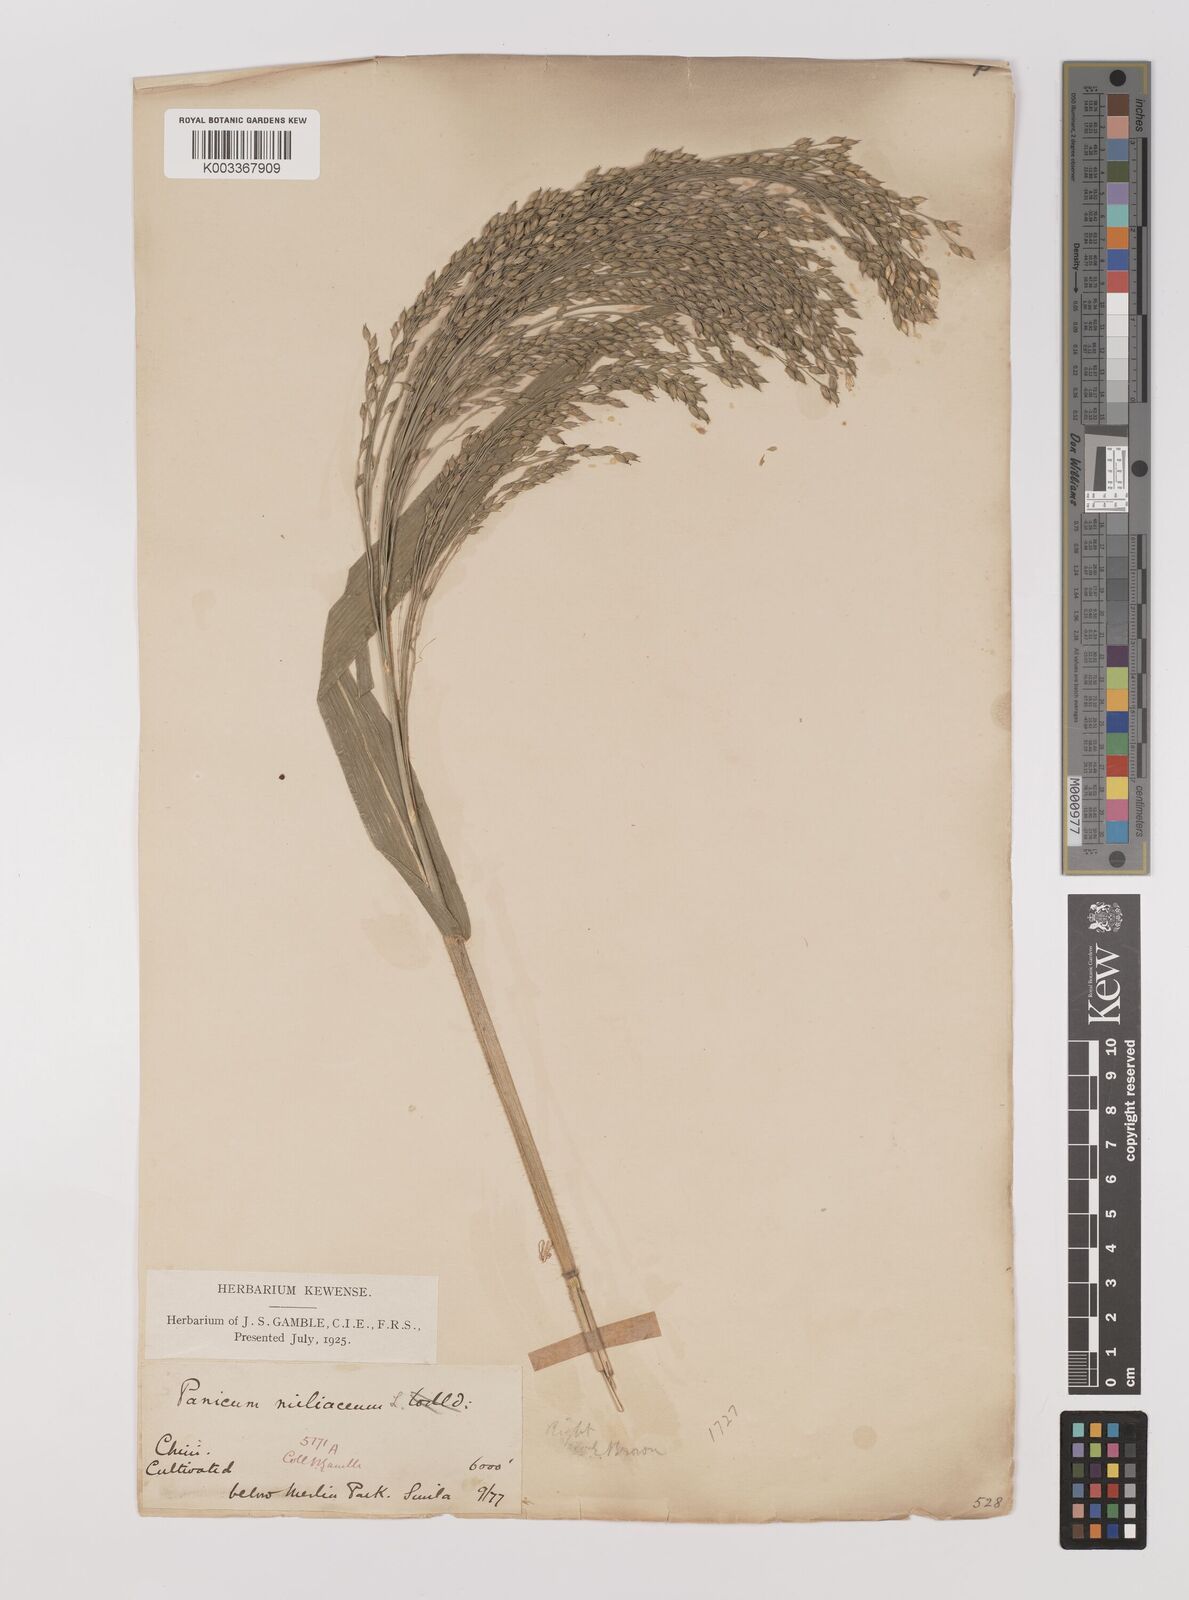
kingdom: Plantae
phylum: Tracheophyta
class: Liliopsida
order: Poales
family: Poaceae
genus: Panicum
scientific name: Panicum miliaceum
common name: Common millet
